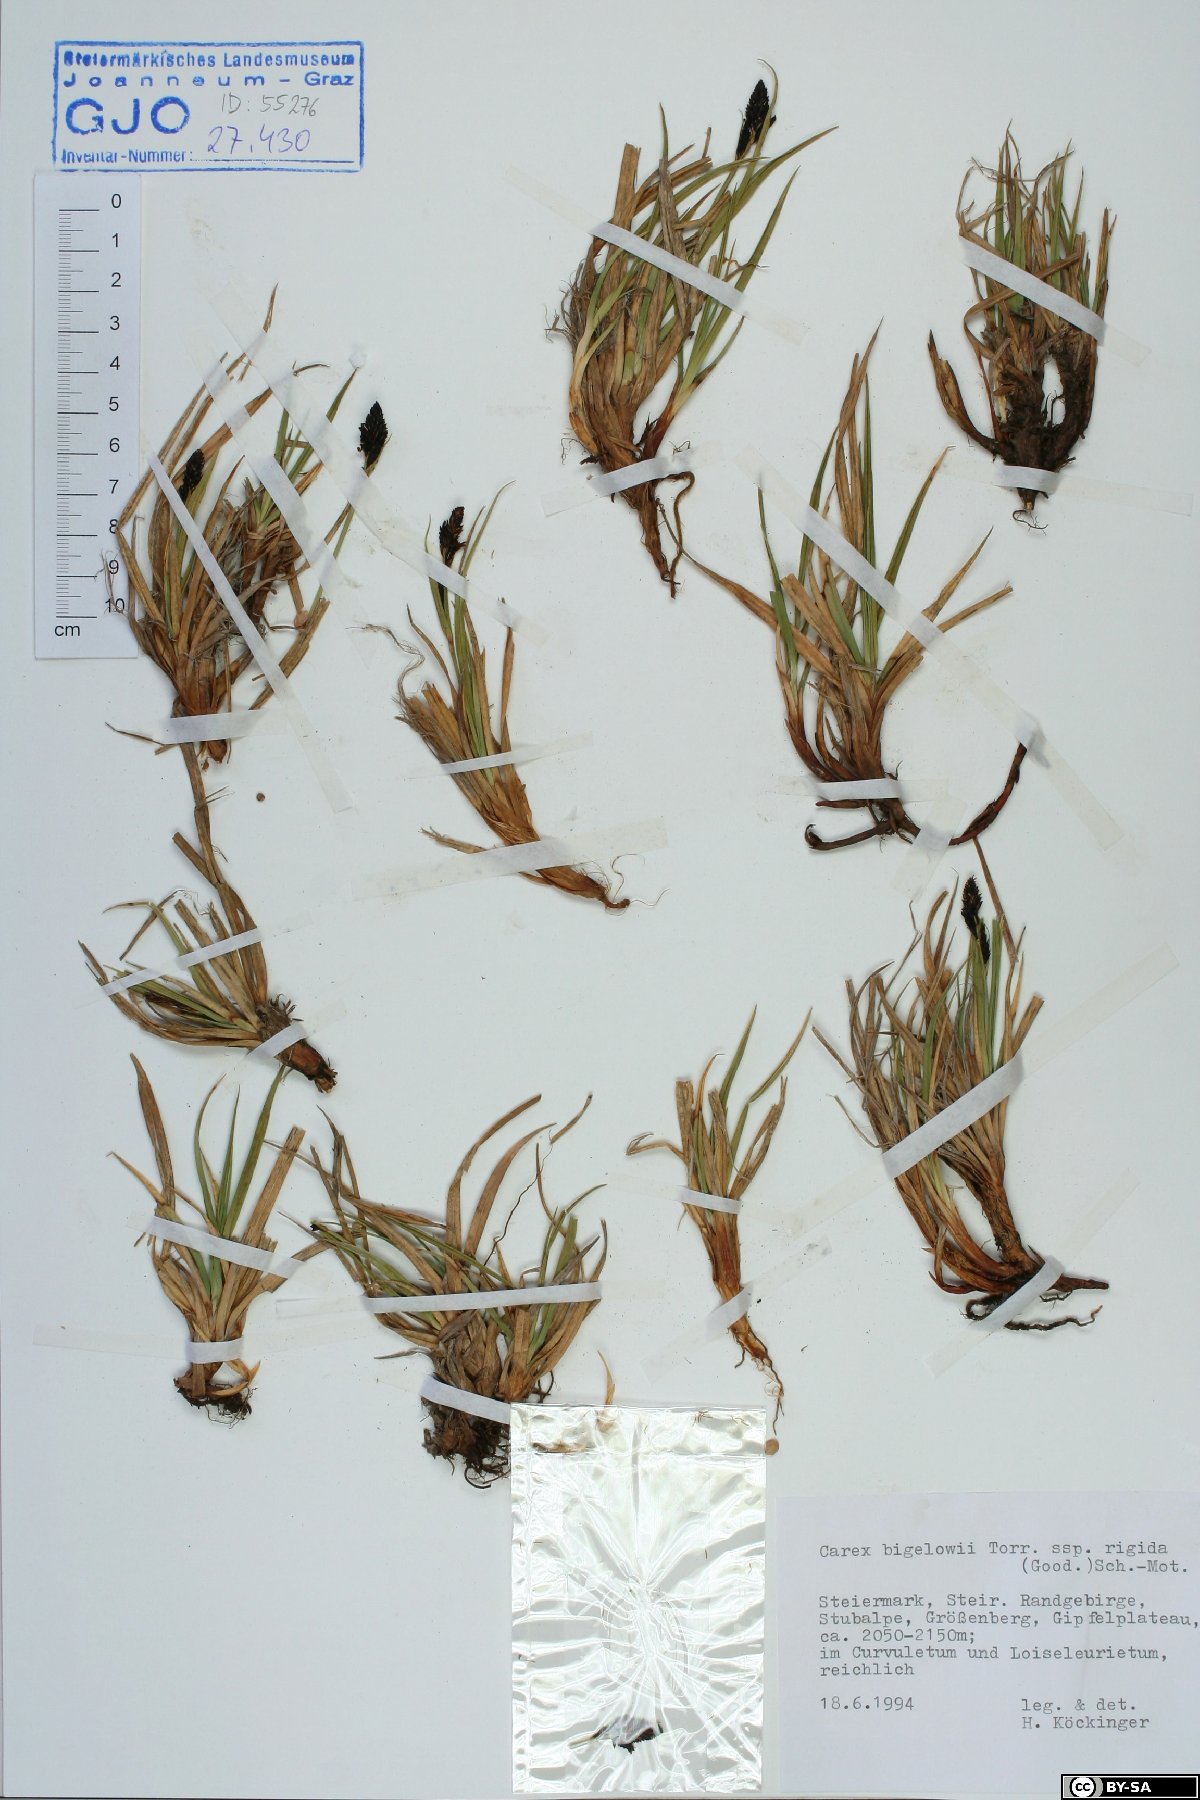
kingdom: Plantae
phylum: Tracheophyta
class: Liliopsida
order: Poales
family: Cyperaceae
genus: Carex
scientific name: Carex dacica
